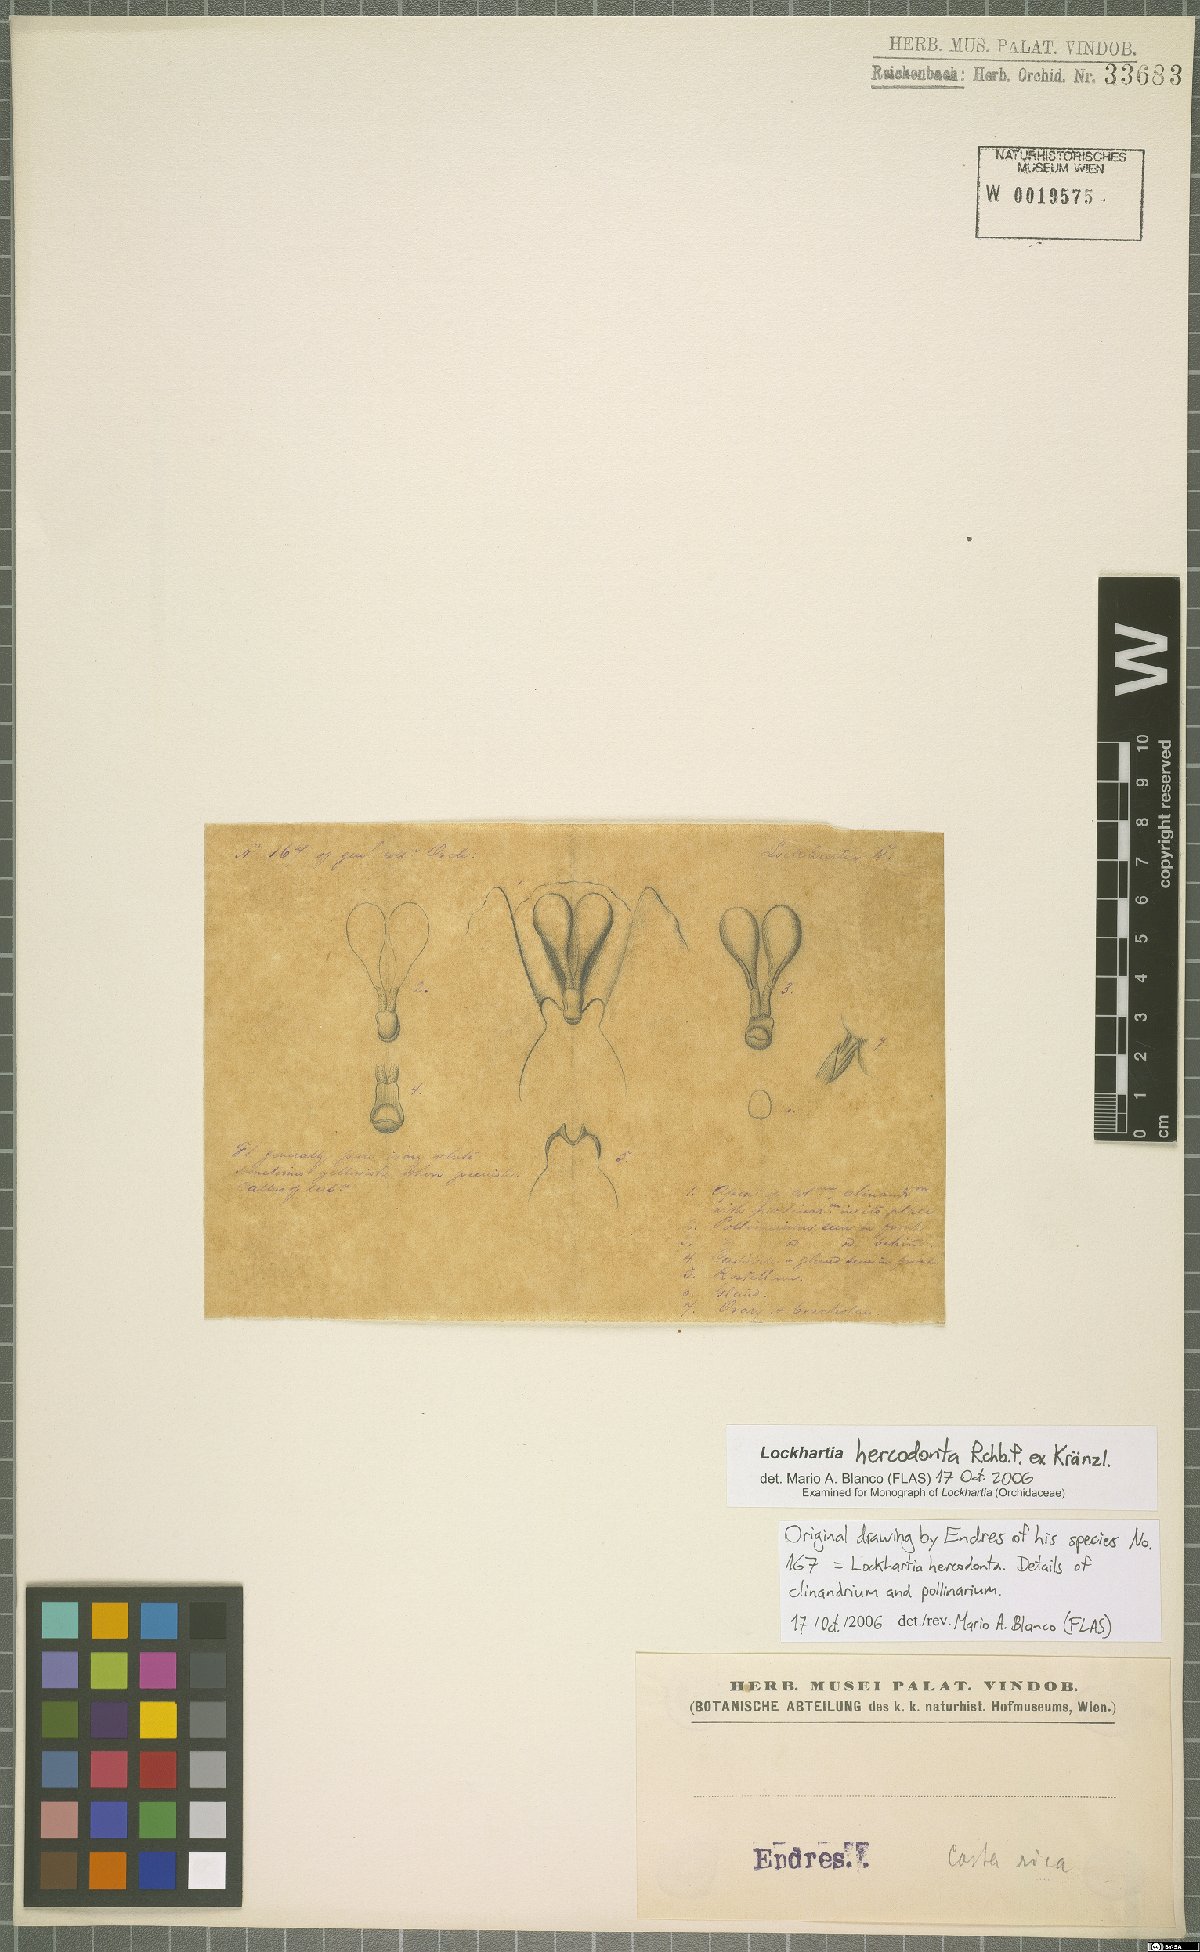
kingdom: Plantae
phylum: Tracheophyta
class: Liliopsida
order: Asparagales
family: Orchidaceae
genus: Lockhartia
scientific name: Lockhartia hercodonta
